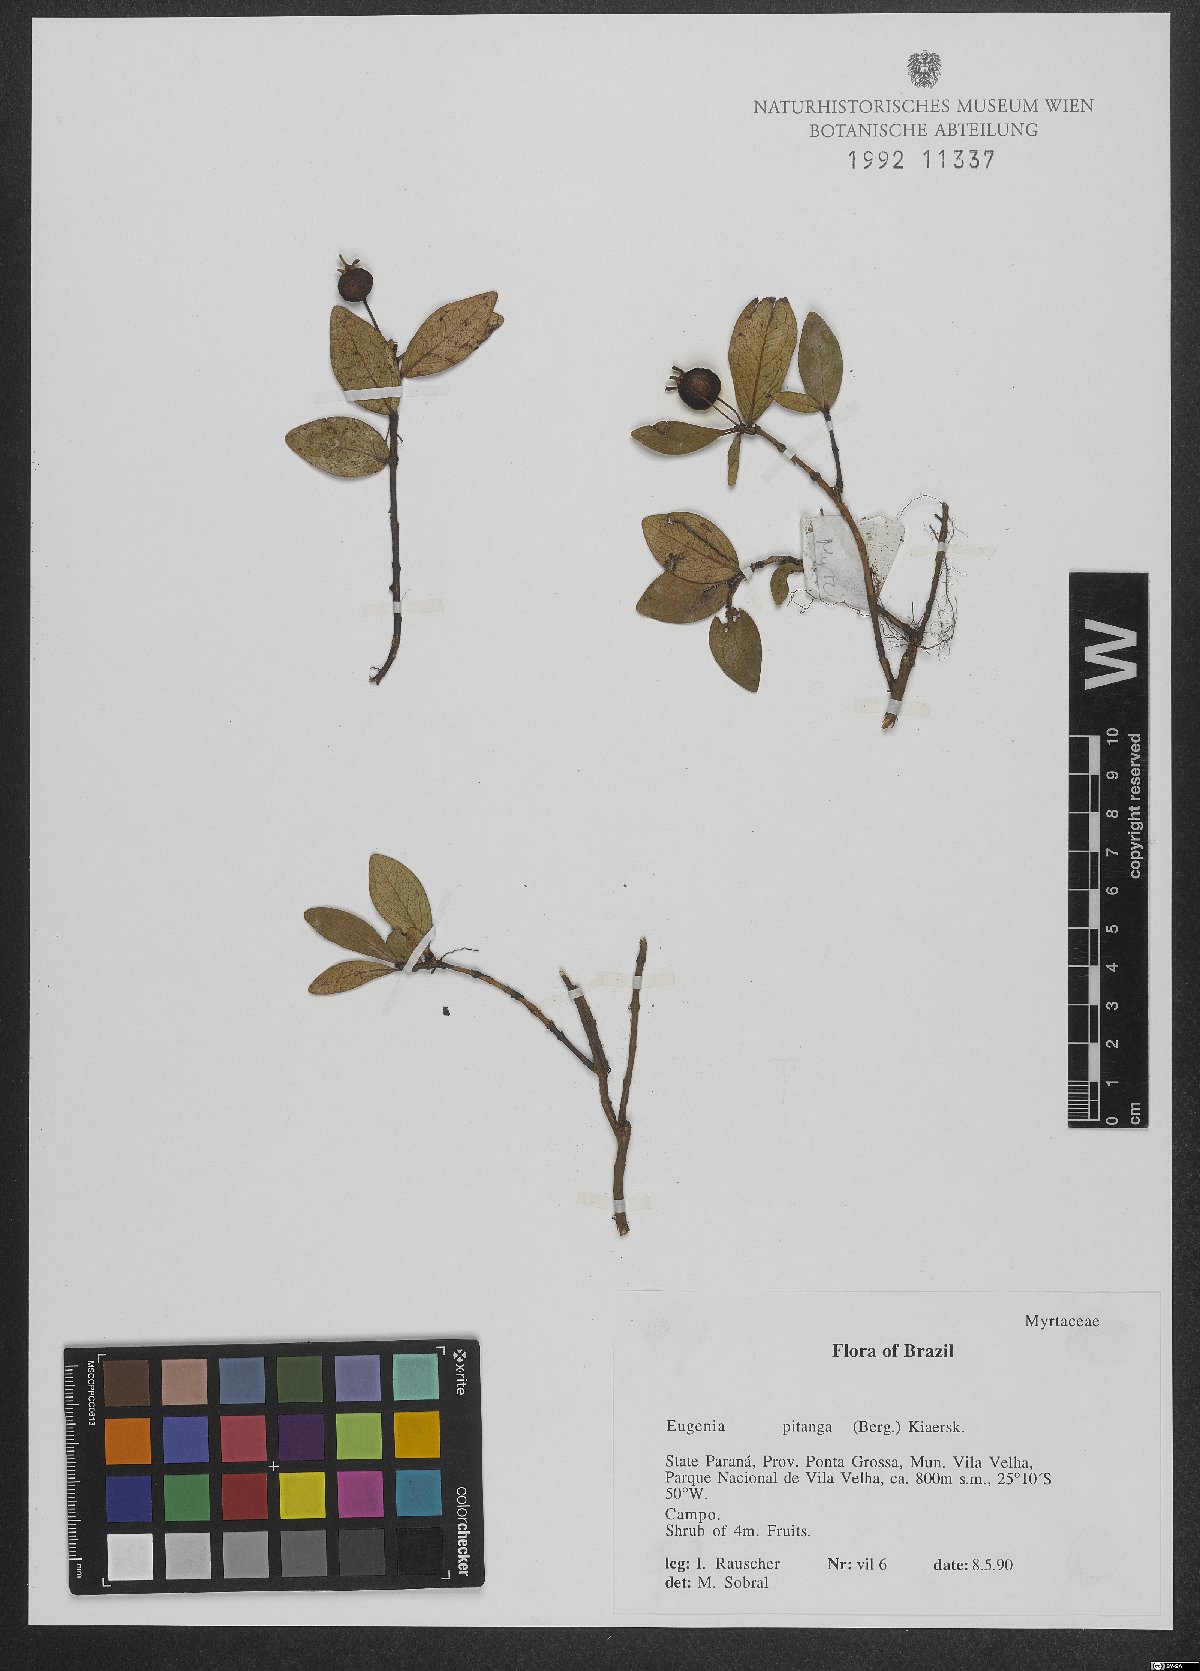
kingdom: Plantae
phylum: Tracheophyta
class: Magnoliopsida
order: Myrtales
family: Myrtaceae
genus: Eugenia
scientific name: Eugenia pitanga
